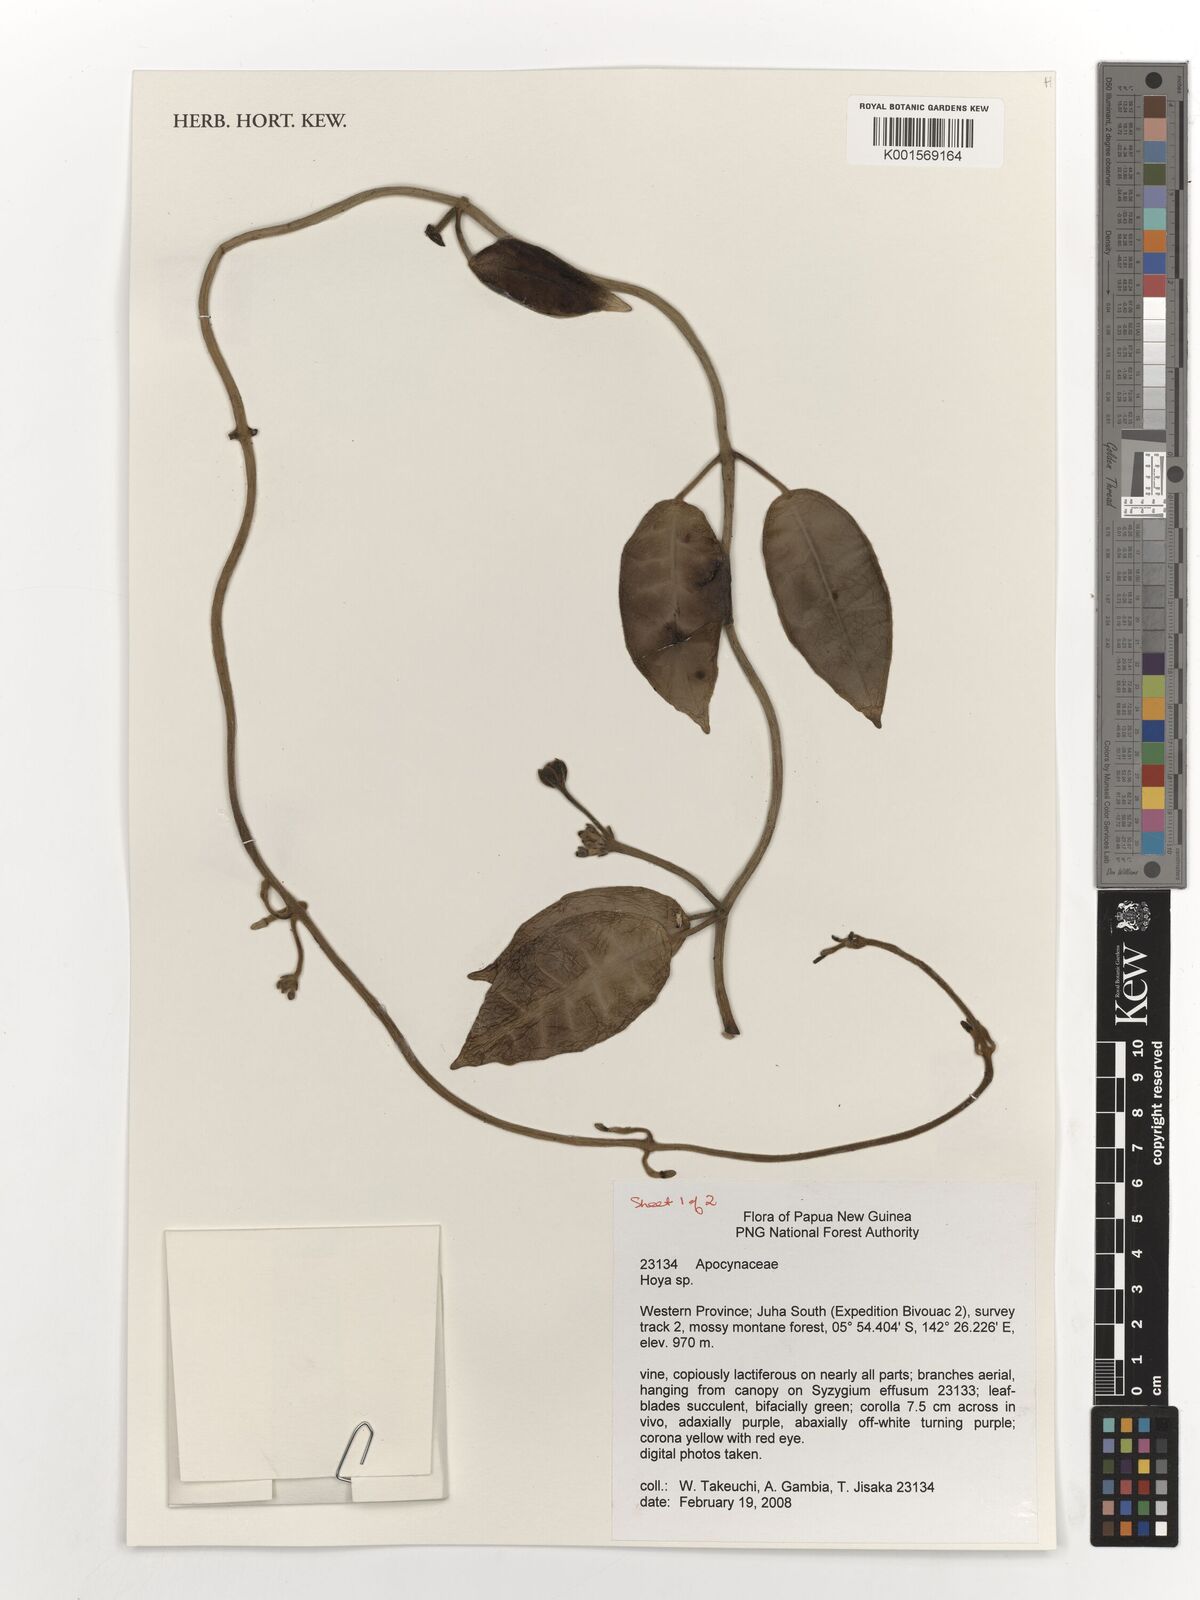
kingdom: Plantae
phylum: Tracheophyta
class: Magnoliopsida
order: Gentianales
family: Apocynaceae
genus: Hoya
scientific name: Hoya
